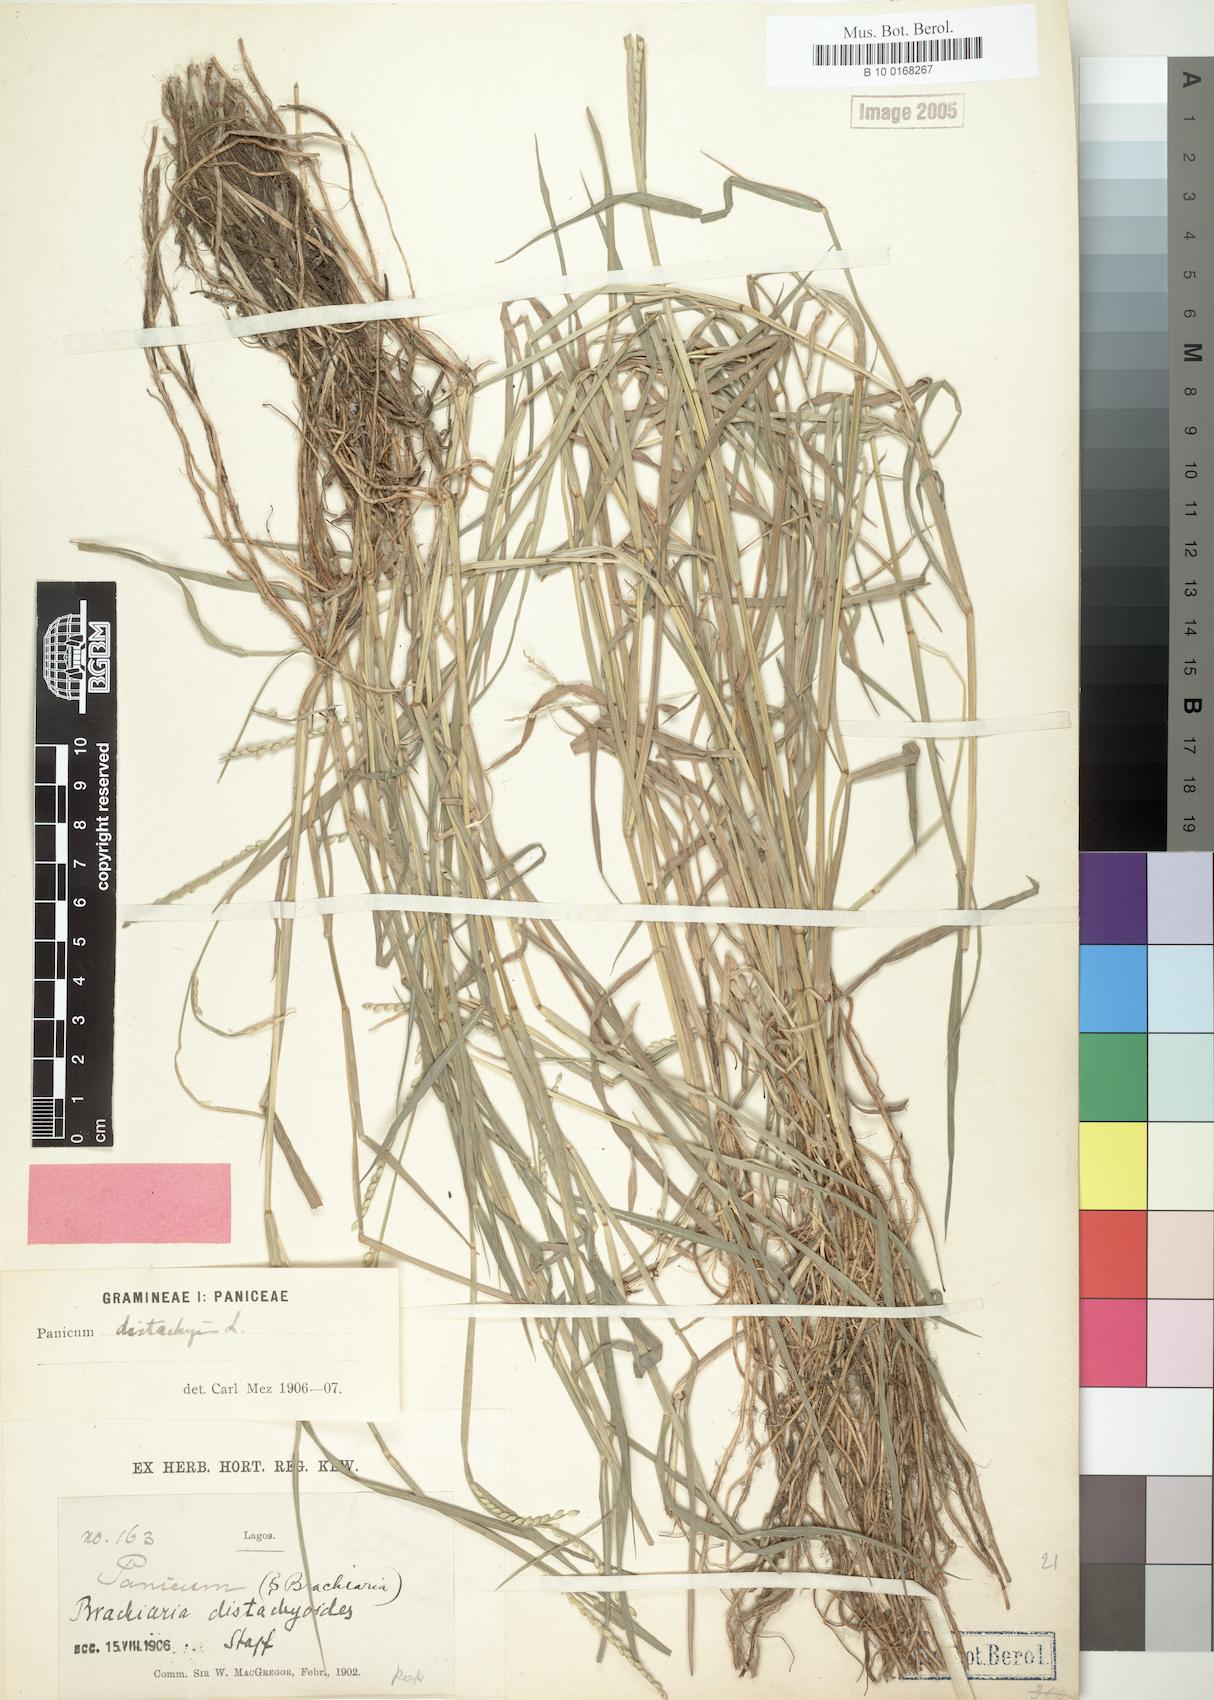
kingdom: Plantae
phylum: Tracheophyta
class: Liliopsida
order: Poales
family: Poaceae
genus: Urochloa
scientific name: Urochloa distachyoides
